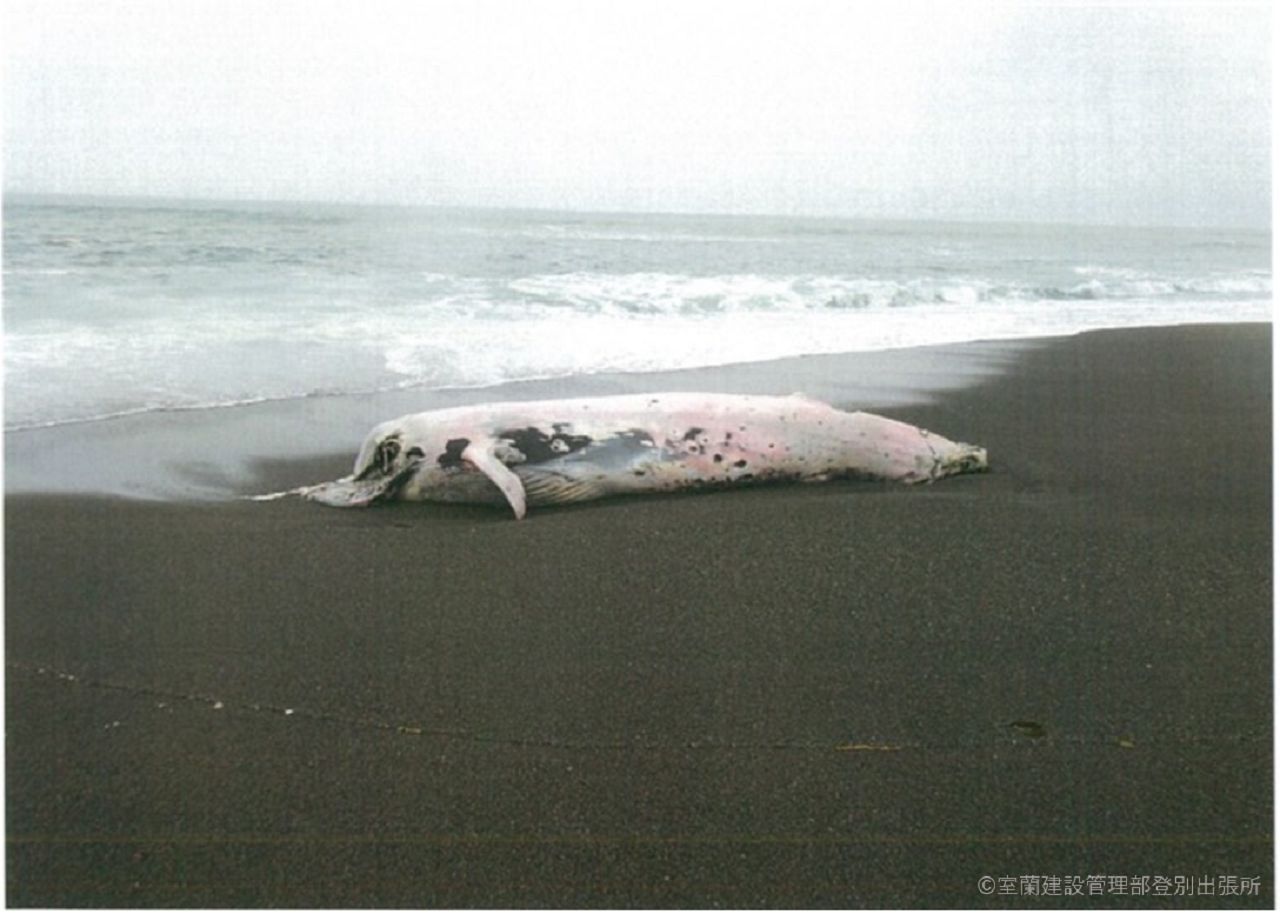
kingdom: Animalia
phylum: Chordata
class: Mammalia
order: Cetacea
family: Balaenopteridae
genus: Balaenoptera
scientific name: Balaenoptera acutorostrata
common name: Minke whale
